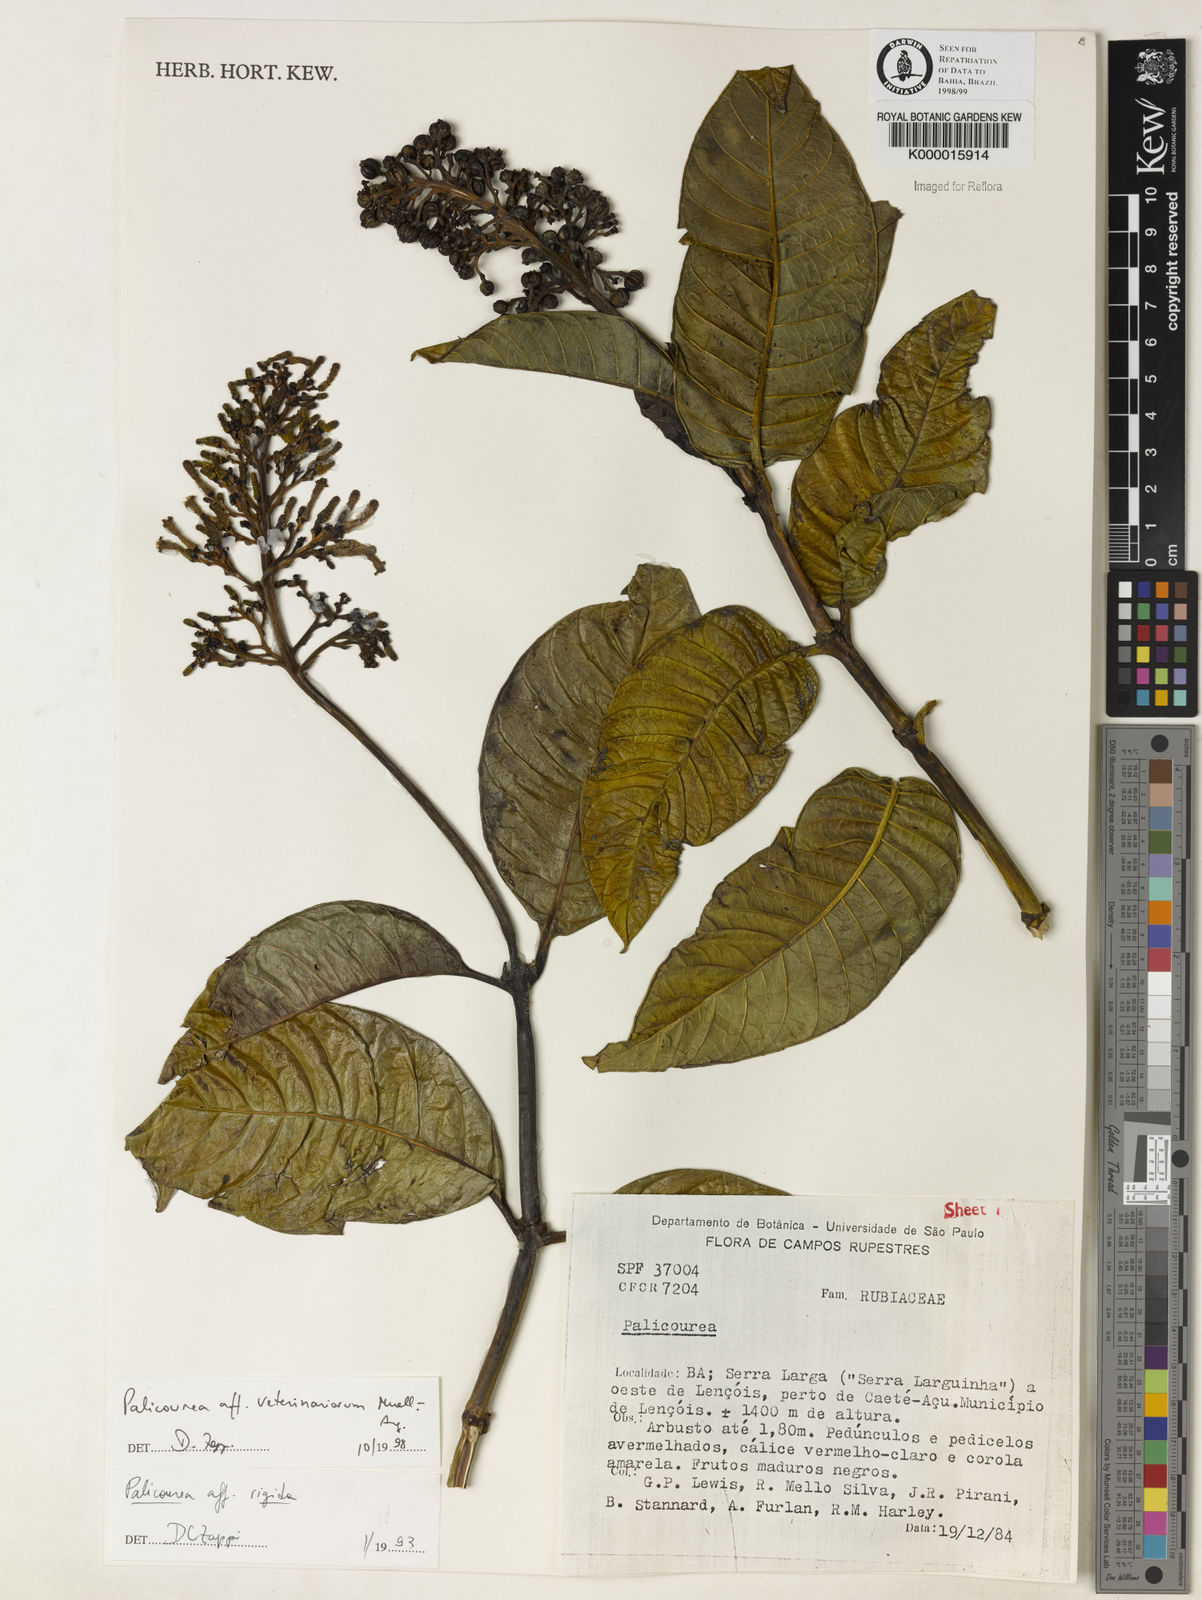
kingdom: Plantae
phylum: Tracheophyta
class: Magnoliopsida
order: Gentianales
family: Rubiaceae
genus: Palicourea
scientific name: Palicourea veterinariorum
